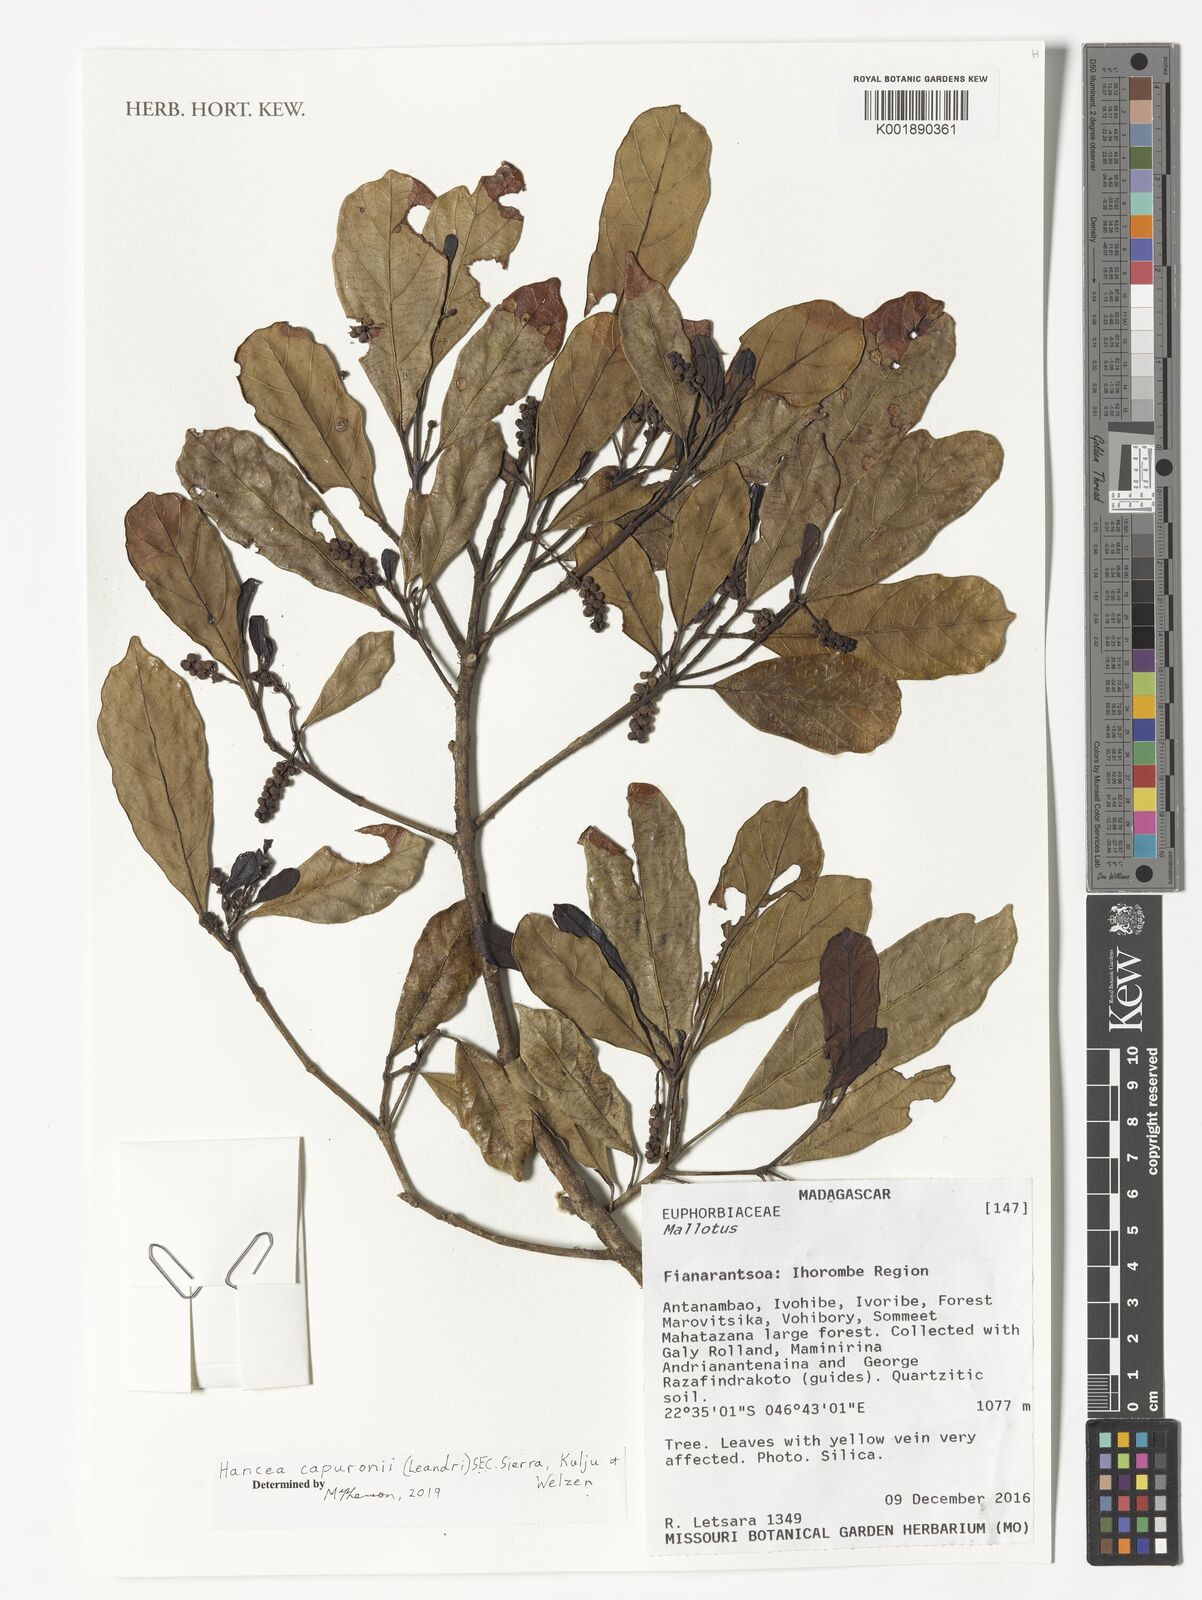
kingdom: Plantae
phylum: Tracheophyta
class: Magnoliopsida
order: Malpighiales
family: Euphorbiaceae
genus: Hancea
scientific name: Hancea capuronii
